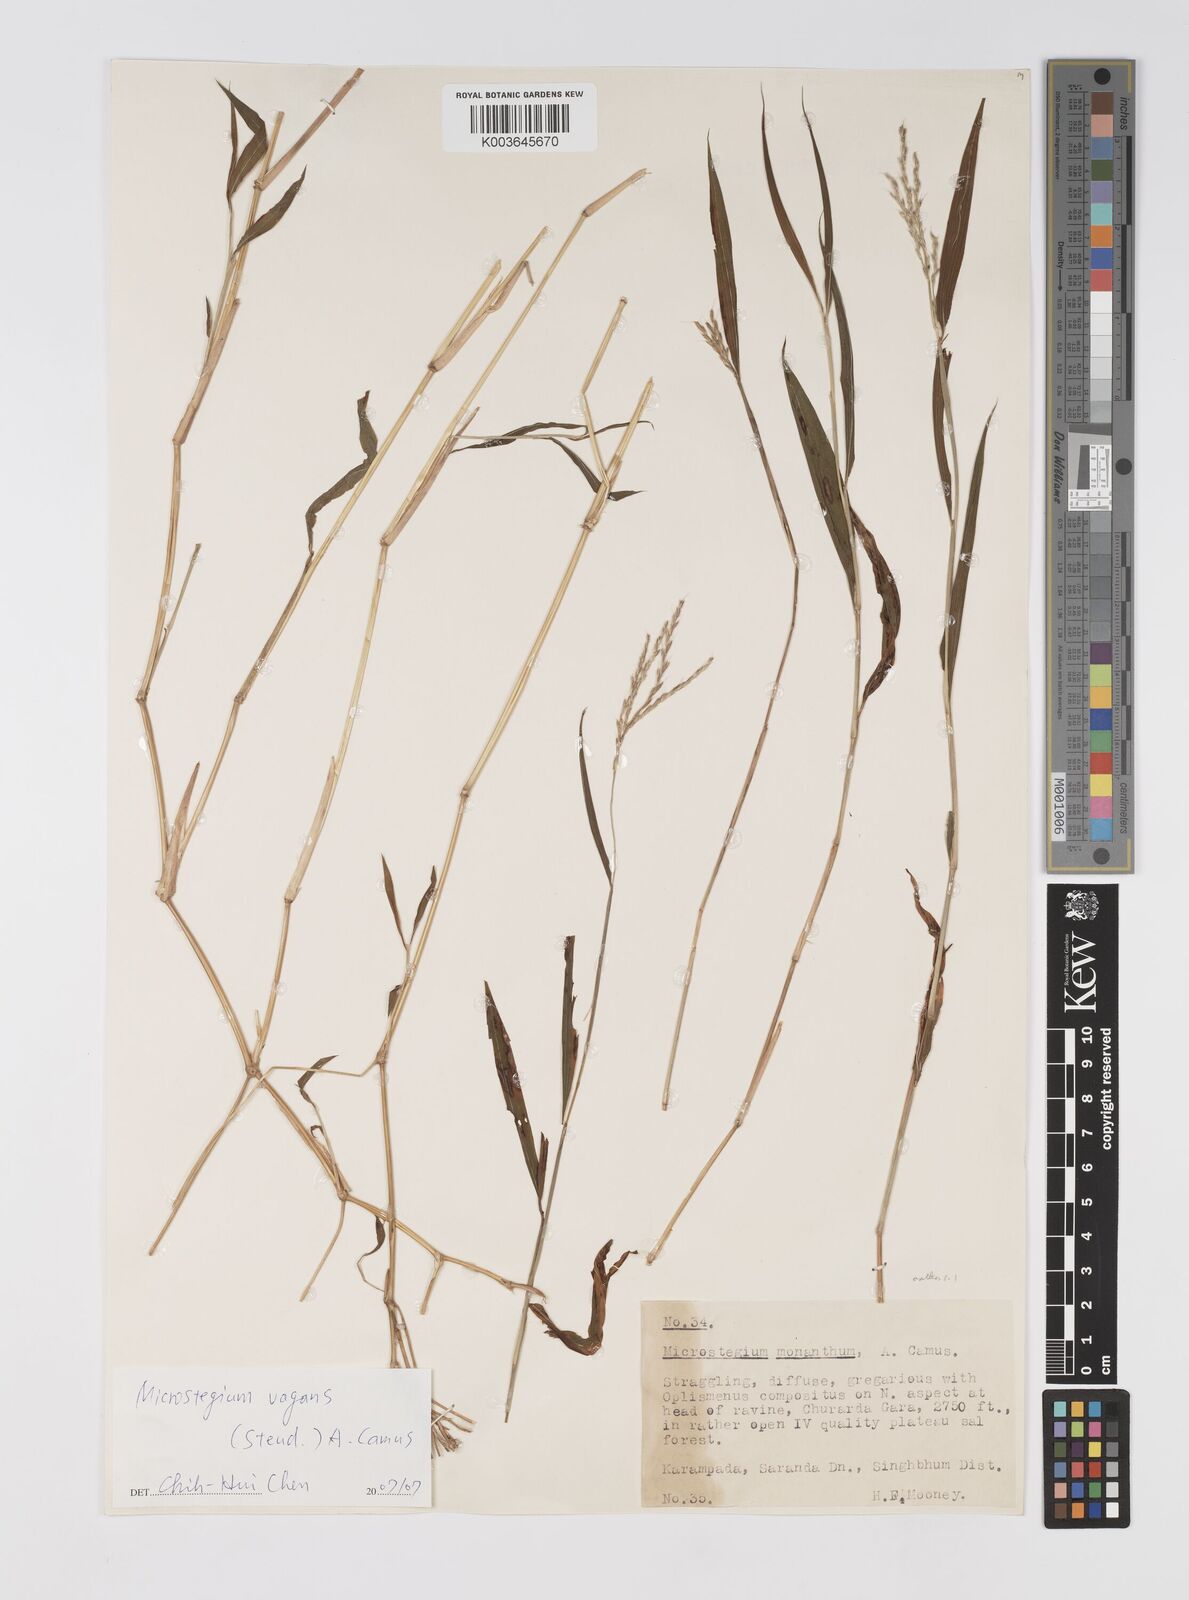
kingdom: Plantae
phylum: Tracheophyta
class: Liliopsida
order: Poales
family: Poaceae
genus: Microstegium
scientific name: Microstegium fasciculatum
